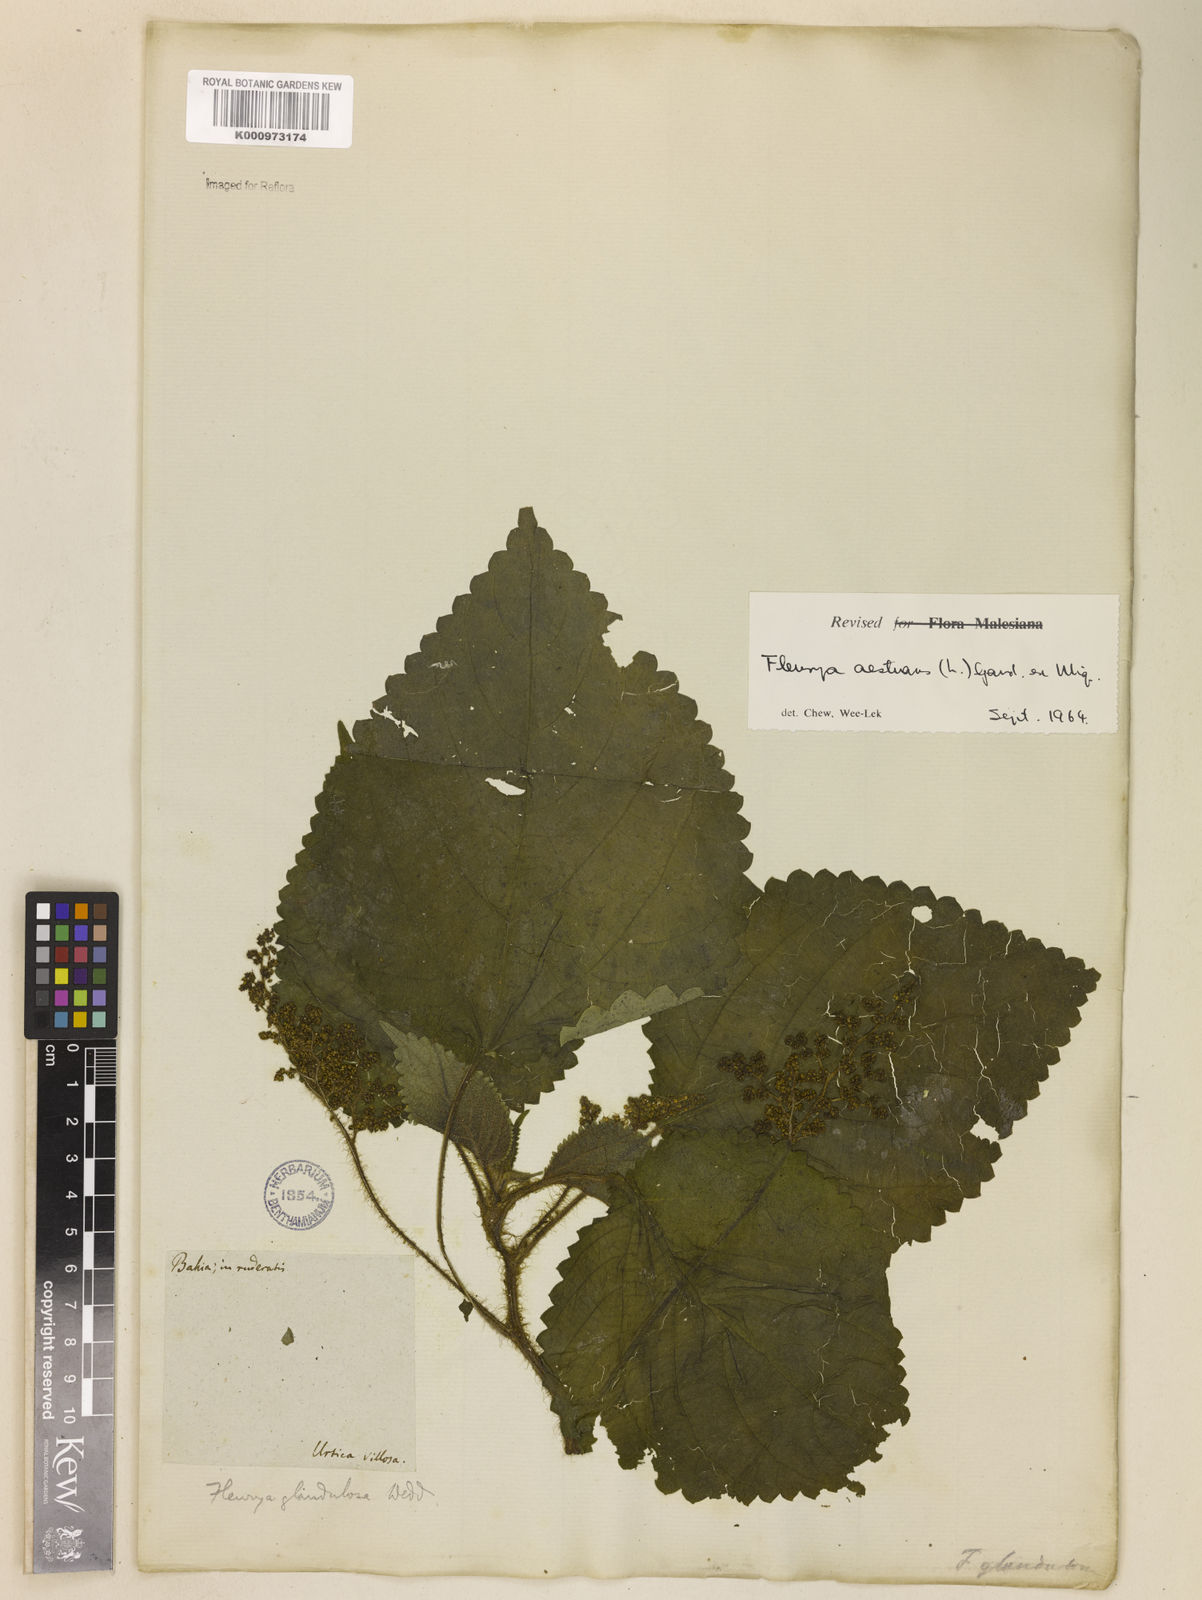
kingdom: Plantae
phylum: Tracheophyta
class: Magnoliopsida
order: Rosales
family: Urticaceae
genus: Laportea
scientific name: Laportea aestuans
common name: West indian woodnettle
